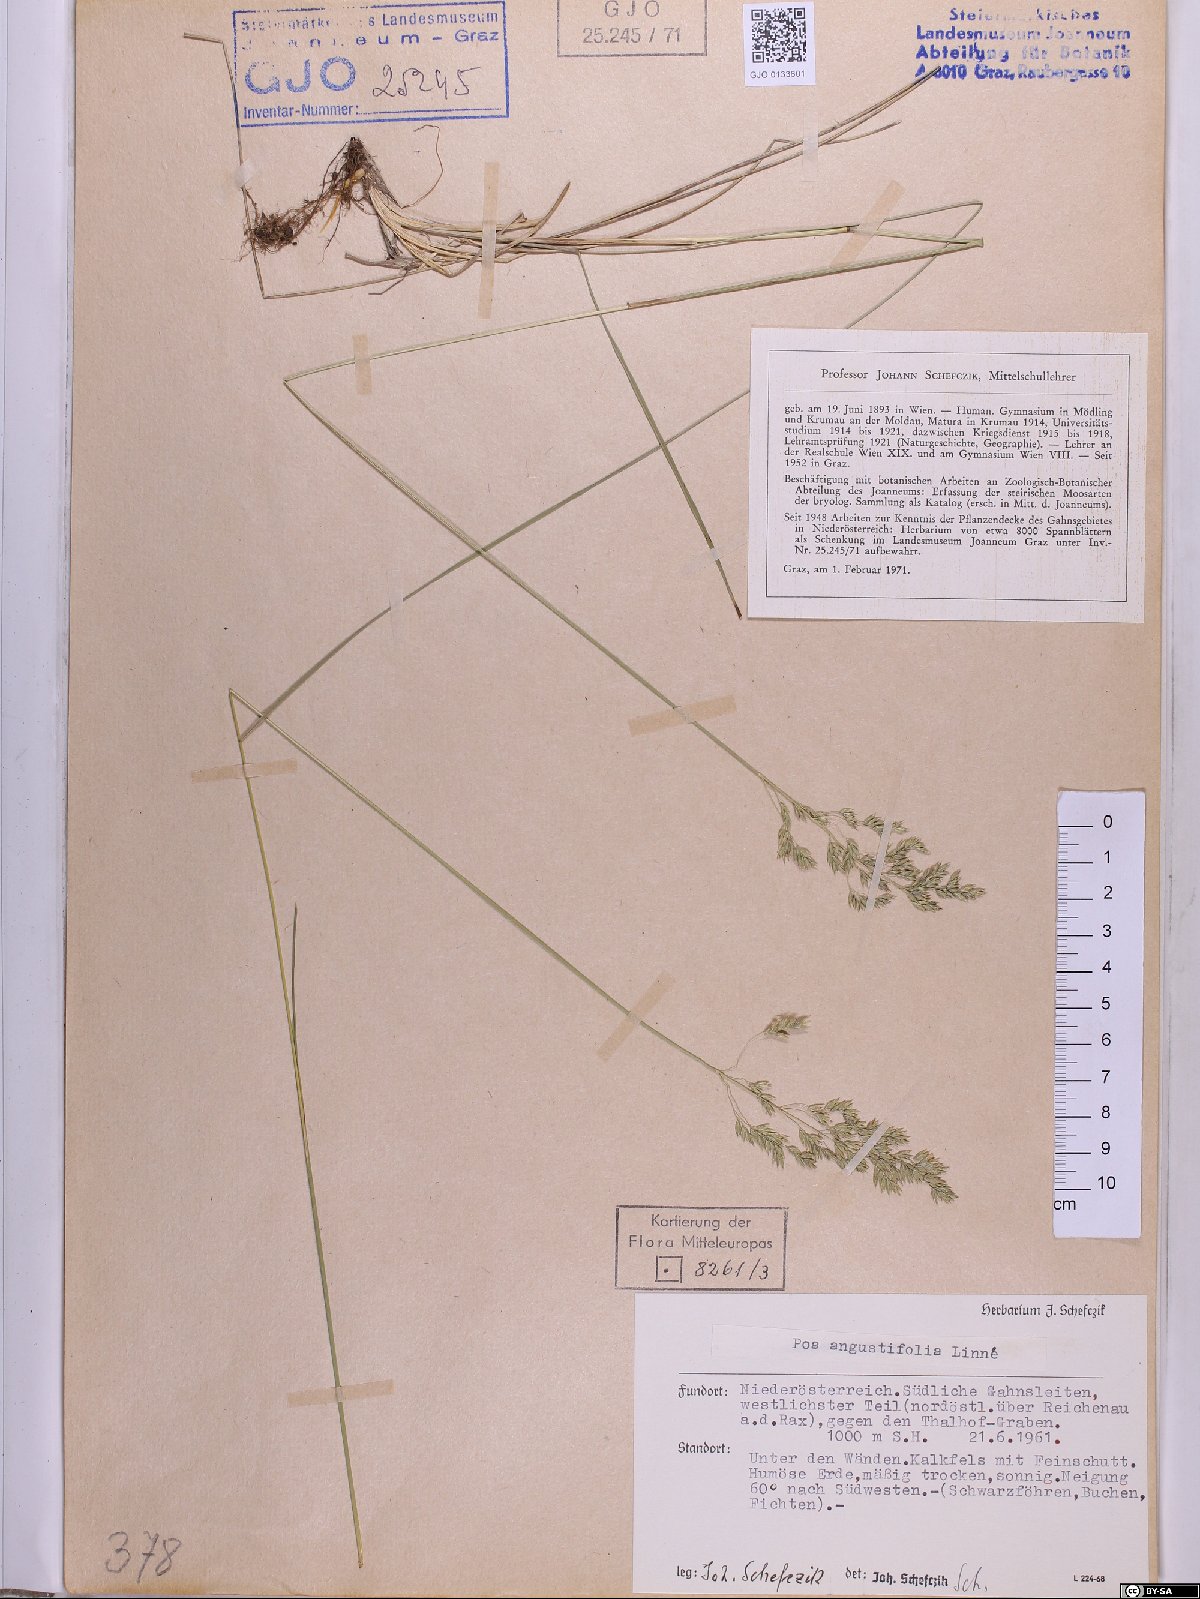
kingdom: Plantae
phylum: Tracheophyta
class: Liliopsida
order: Poales
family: Poaceae
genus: Poa
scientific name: Poa angustifolia
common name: Narrow-leaved meadow-grass
